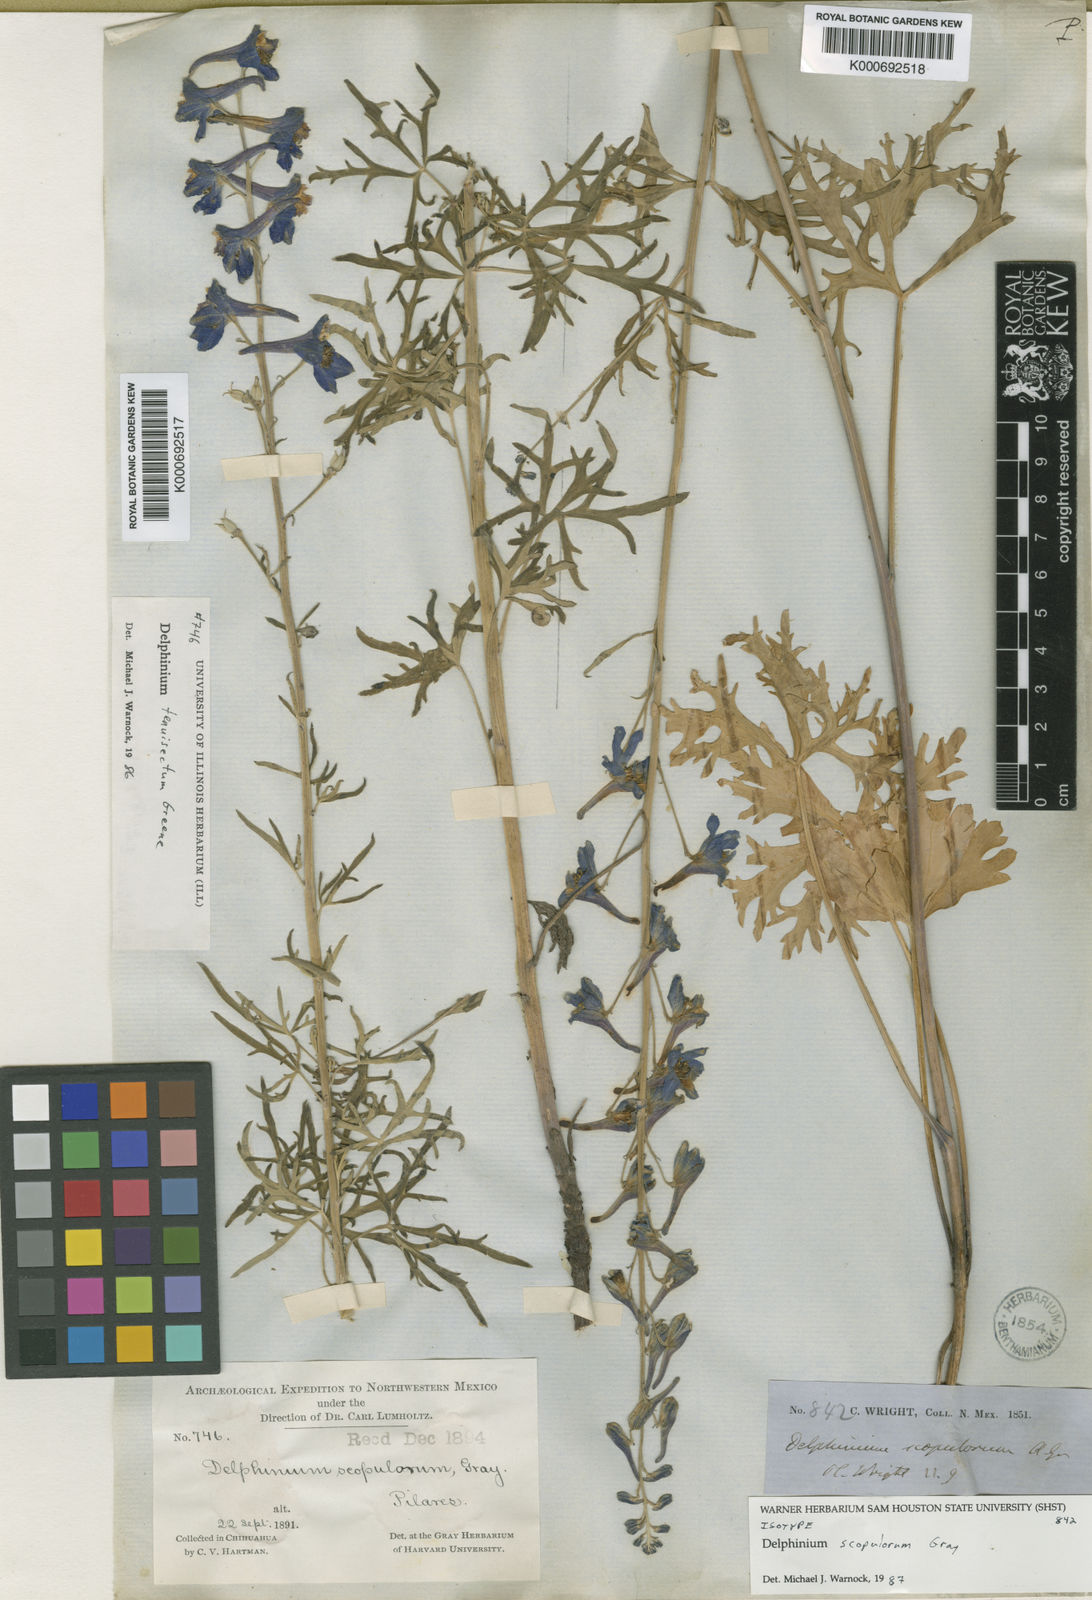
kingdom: Plantae
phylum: Tracheophyta
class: Magnoliopsida
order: Ranunculales
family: Ranunculaceae
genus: Delphinium
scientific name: Delphinium scopulorum
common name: Rocky mountain larkspur
